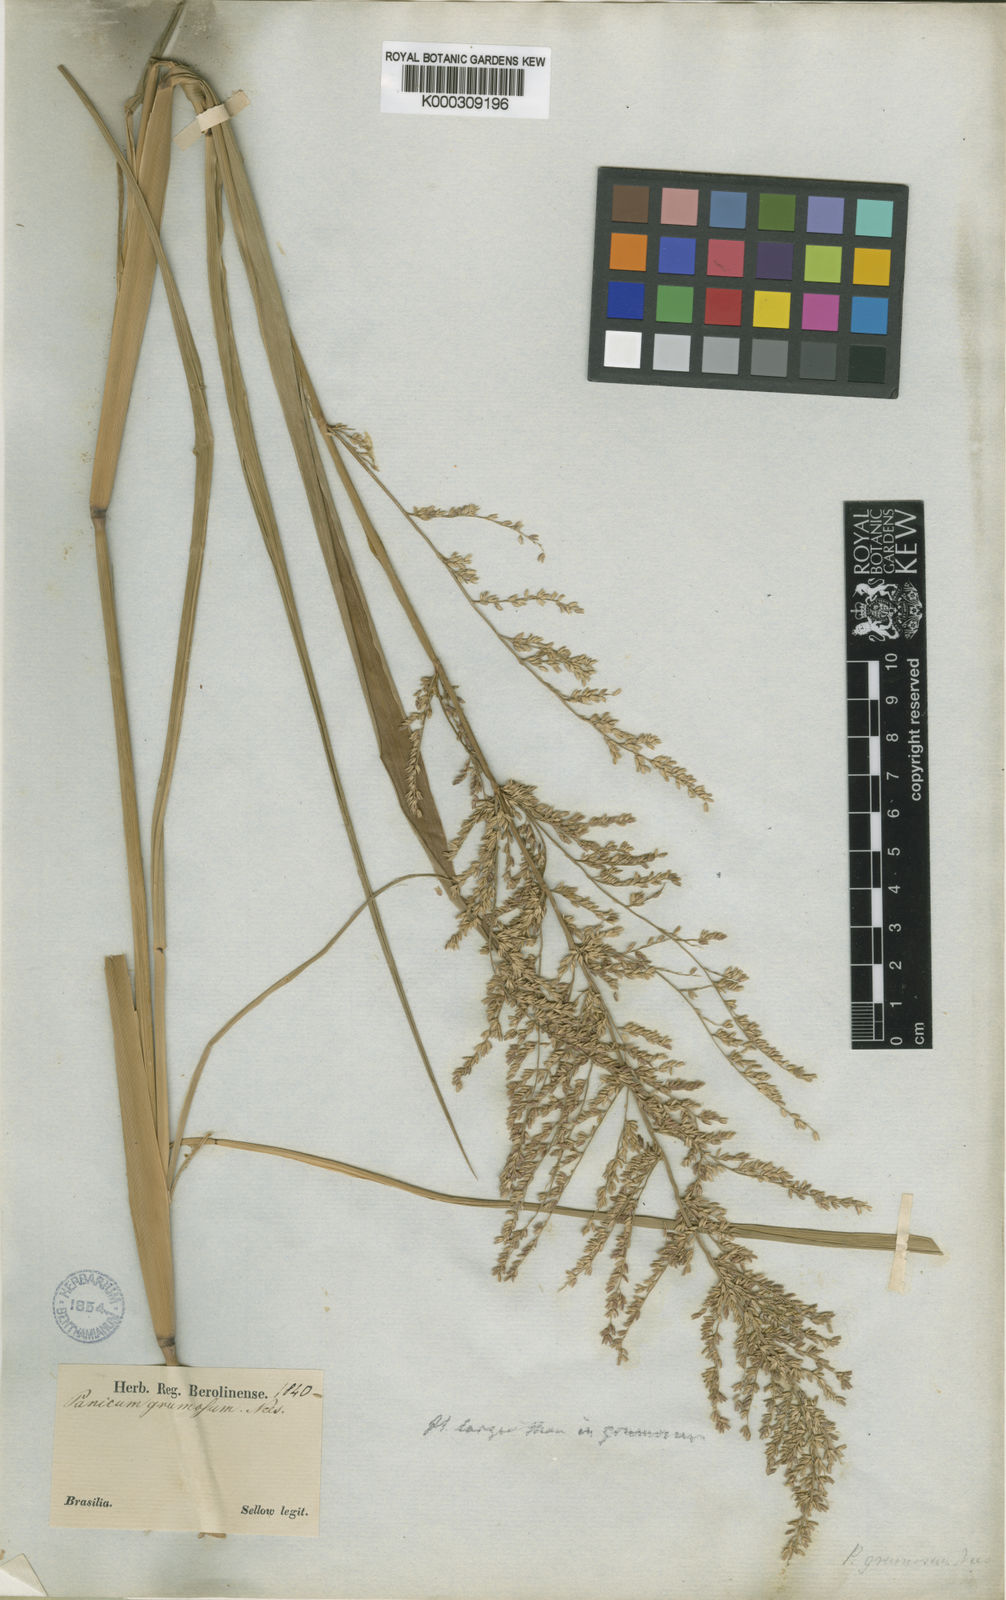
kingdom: Plantae
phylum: Tracheophyta
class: Liliopsida
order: Poales
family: Poaceae
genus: Hymenachne
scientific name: Hymenachne grumosa
